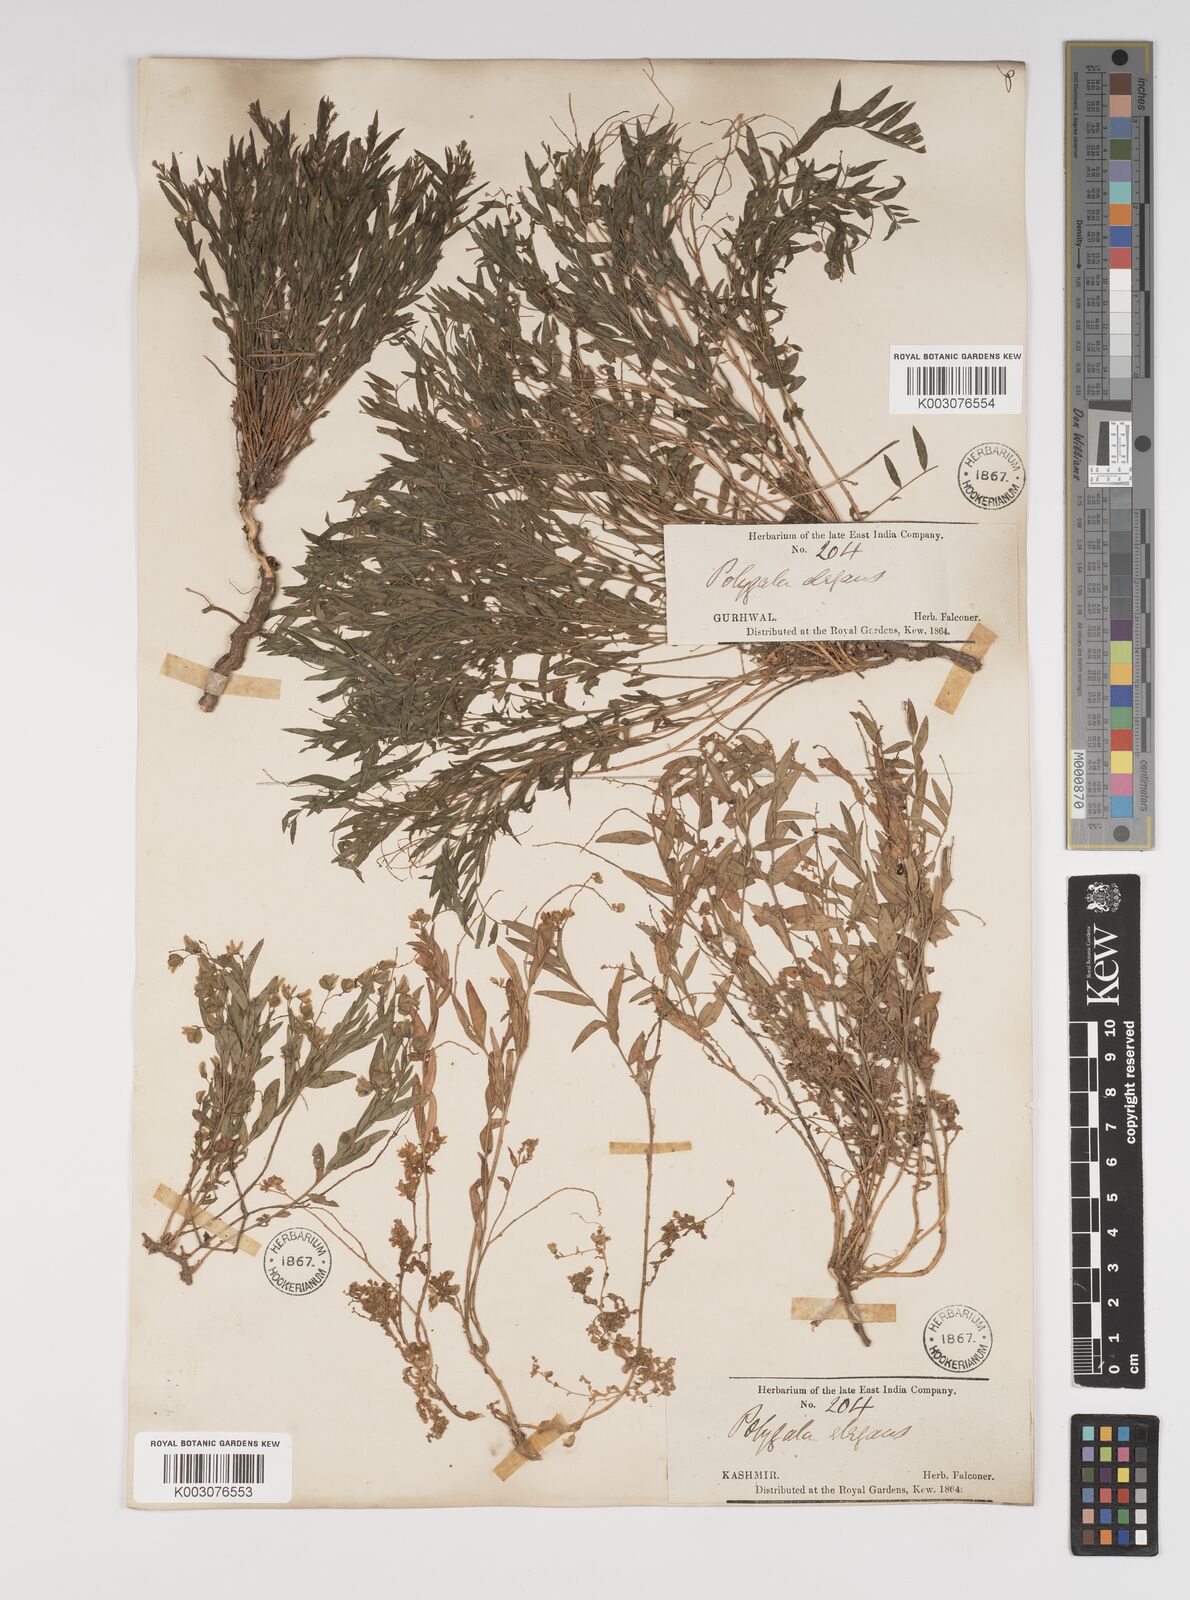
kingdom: Plantae
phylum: Tracheophyta
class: Magnoliopsida
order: Fabales
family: Polygalaceae
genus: Polygala
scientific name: Polygala sibirica
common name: Siberian polygala
